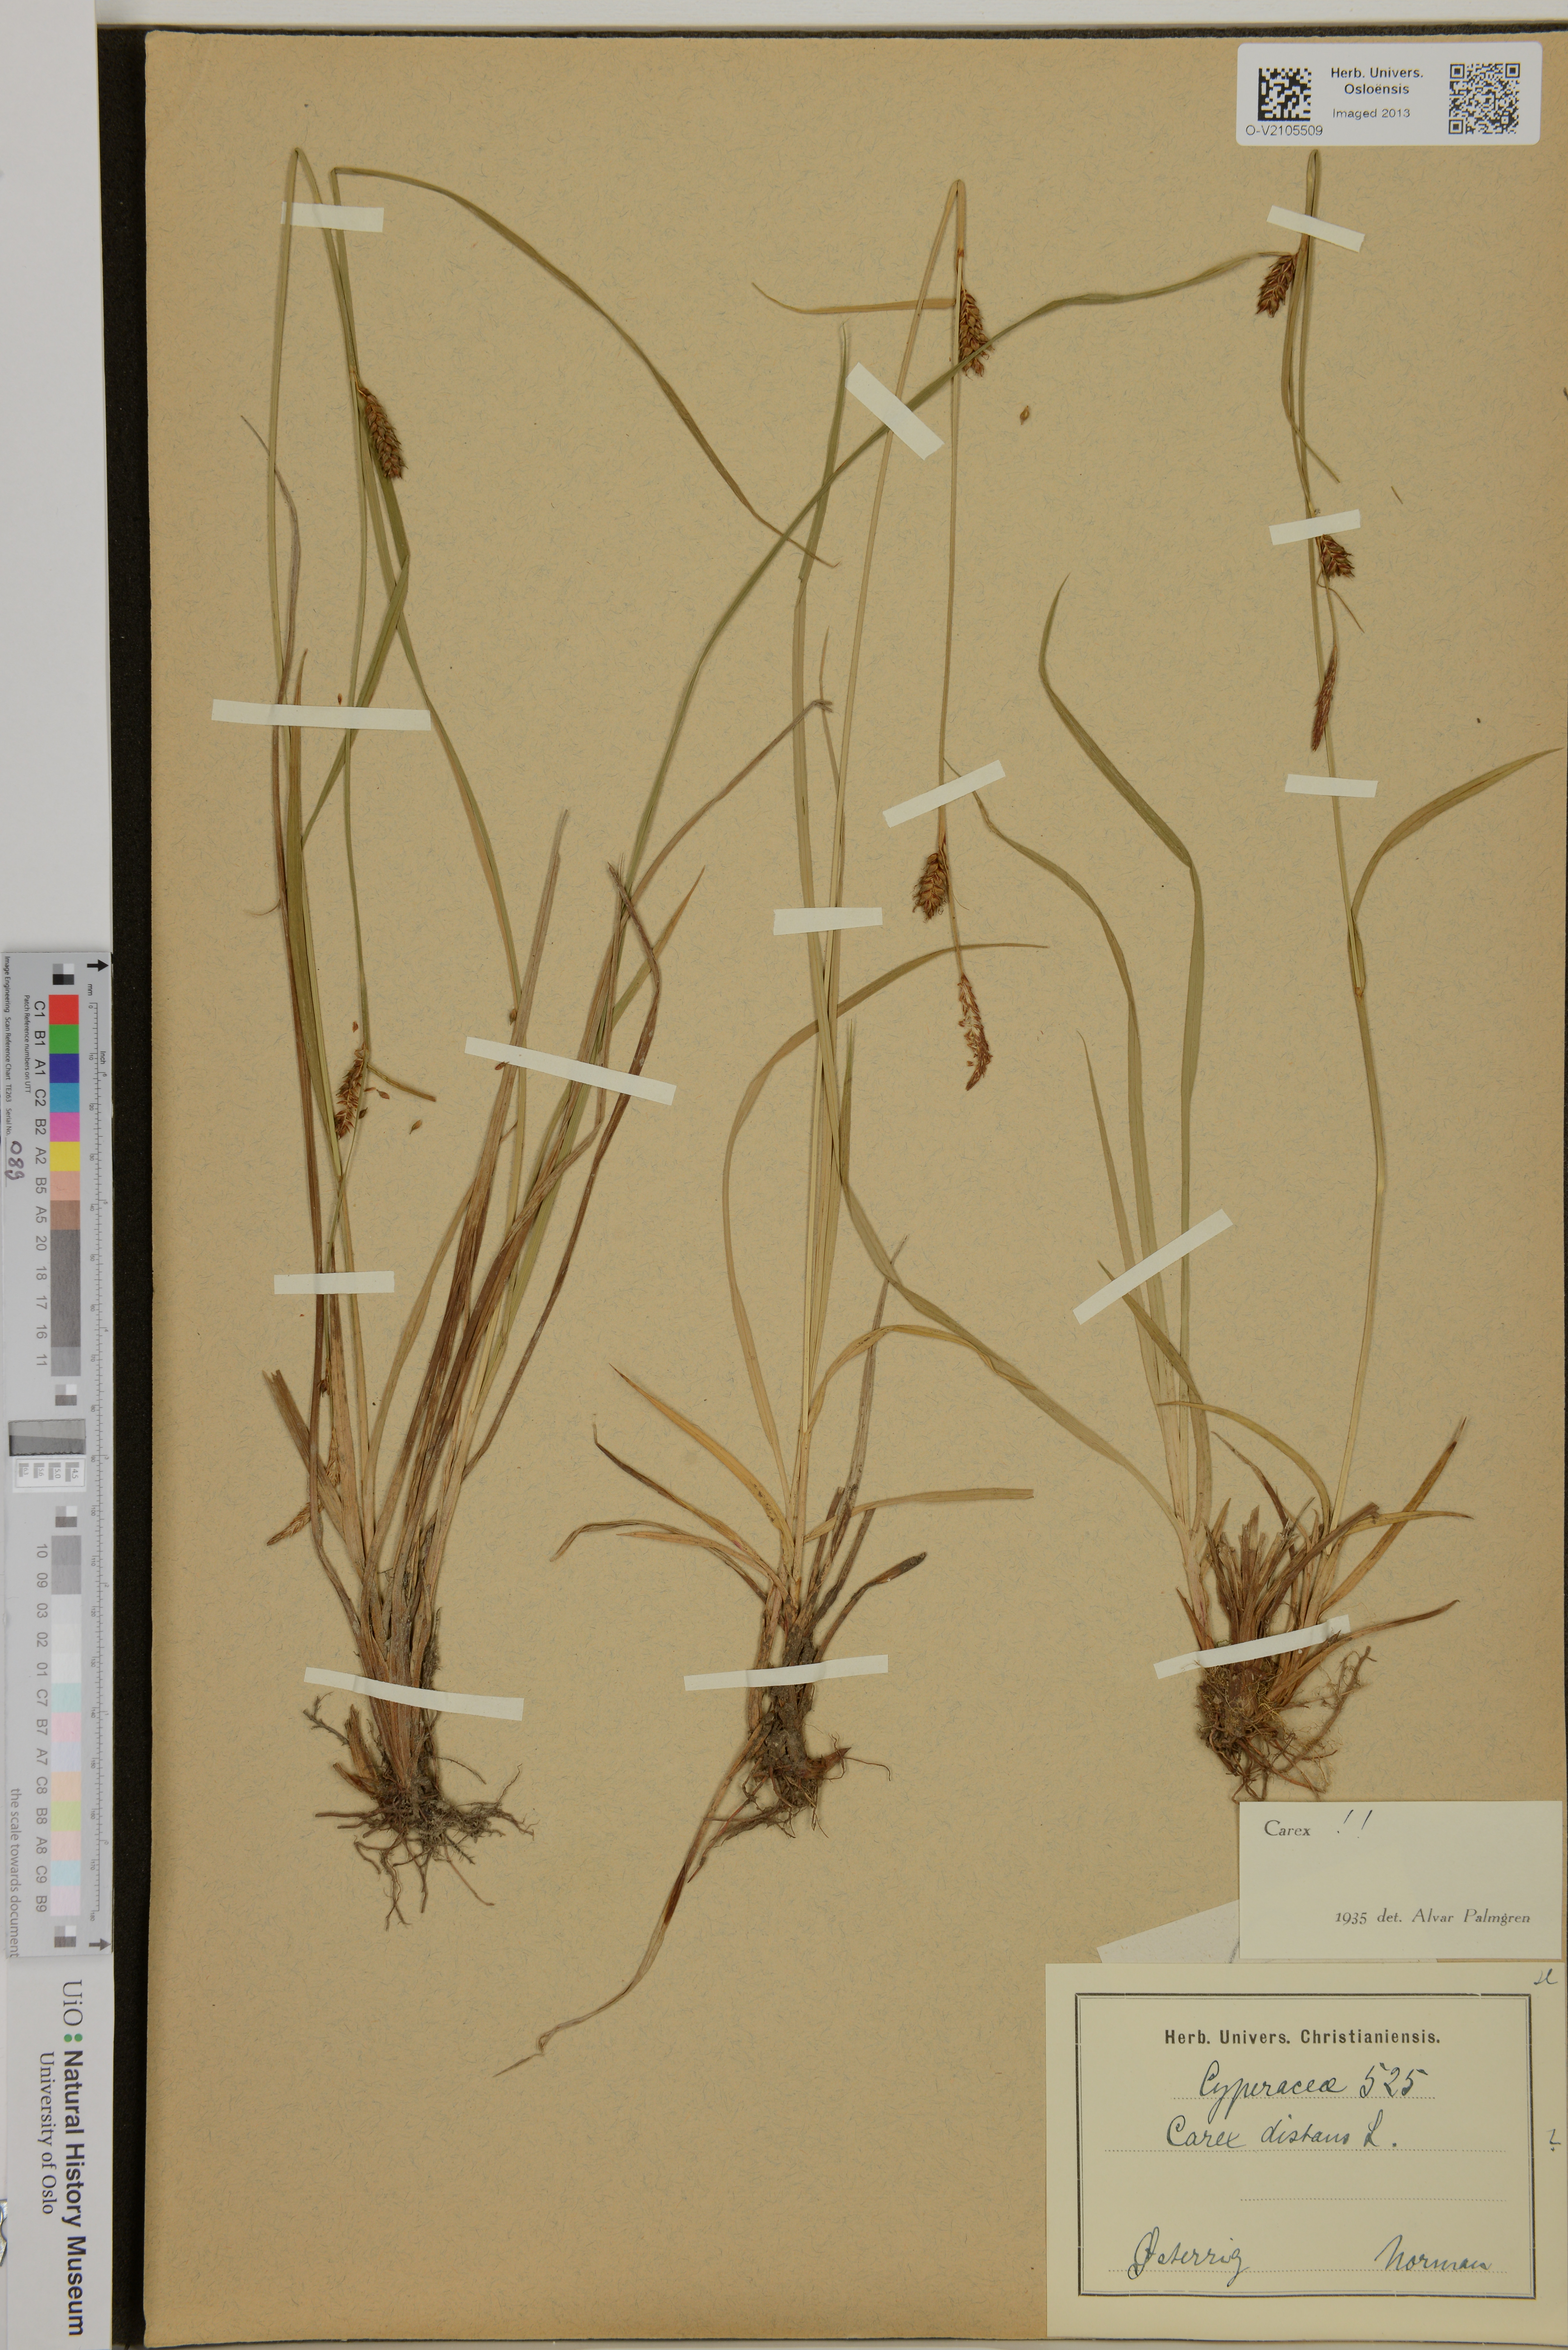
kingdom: Plantae
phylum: Tracheophyta
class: Liliopsida
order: Poales
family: Cyperaceae
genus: Carex
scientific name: Carex distans
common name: Distant sedge
